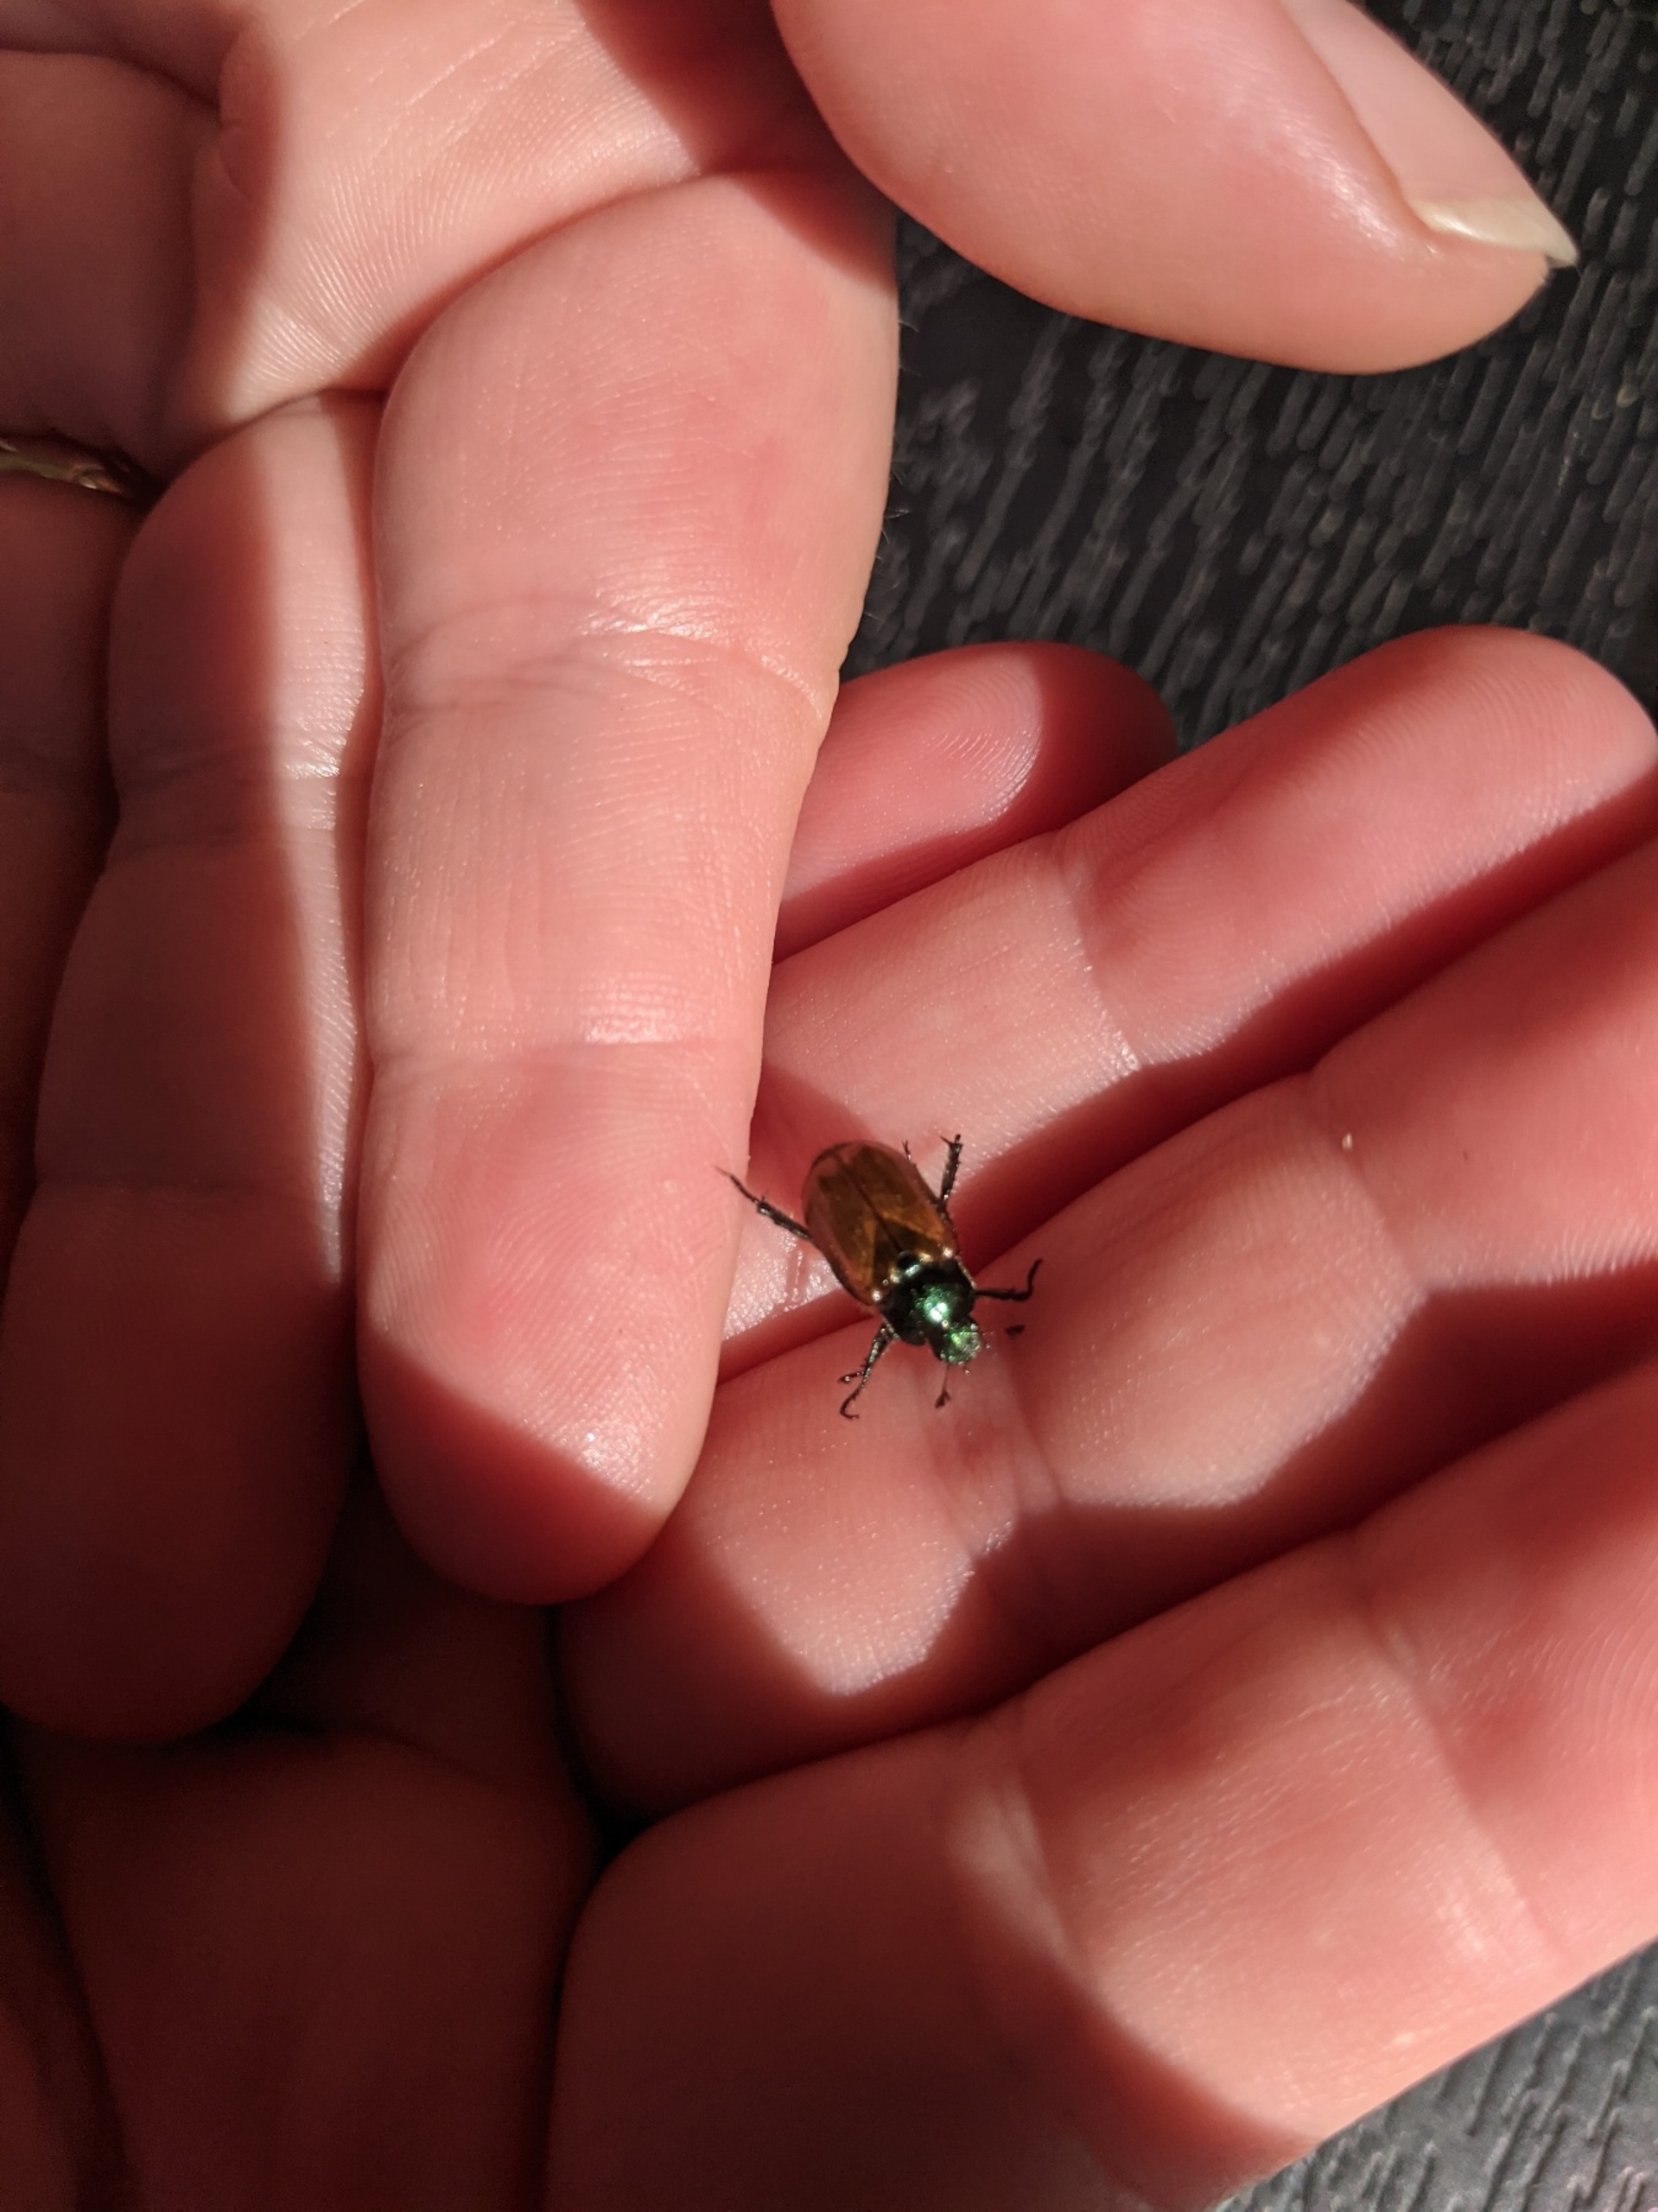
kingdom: Animalia
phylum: Arthropoda
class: Insecta
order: Coleoptera
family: Scarabaeidae
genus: Phyllopertha
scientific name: Phyllopertha horticola
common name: Gåsebille
